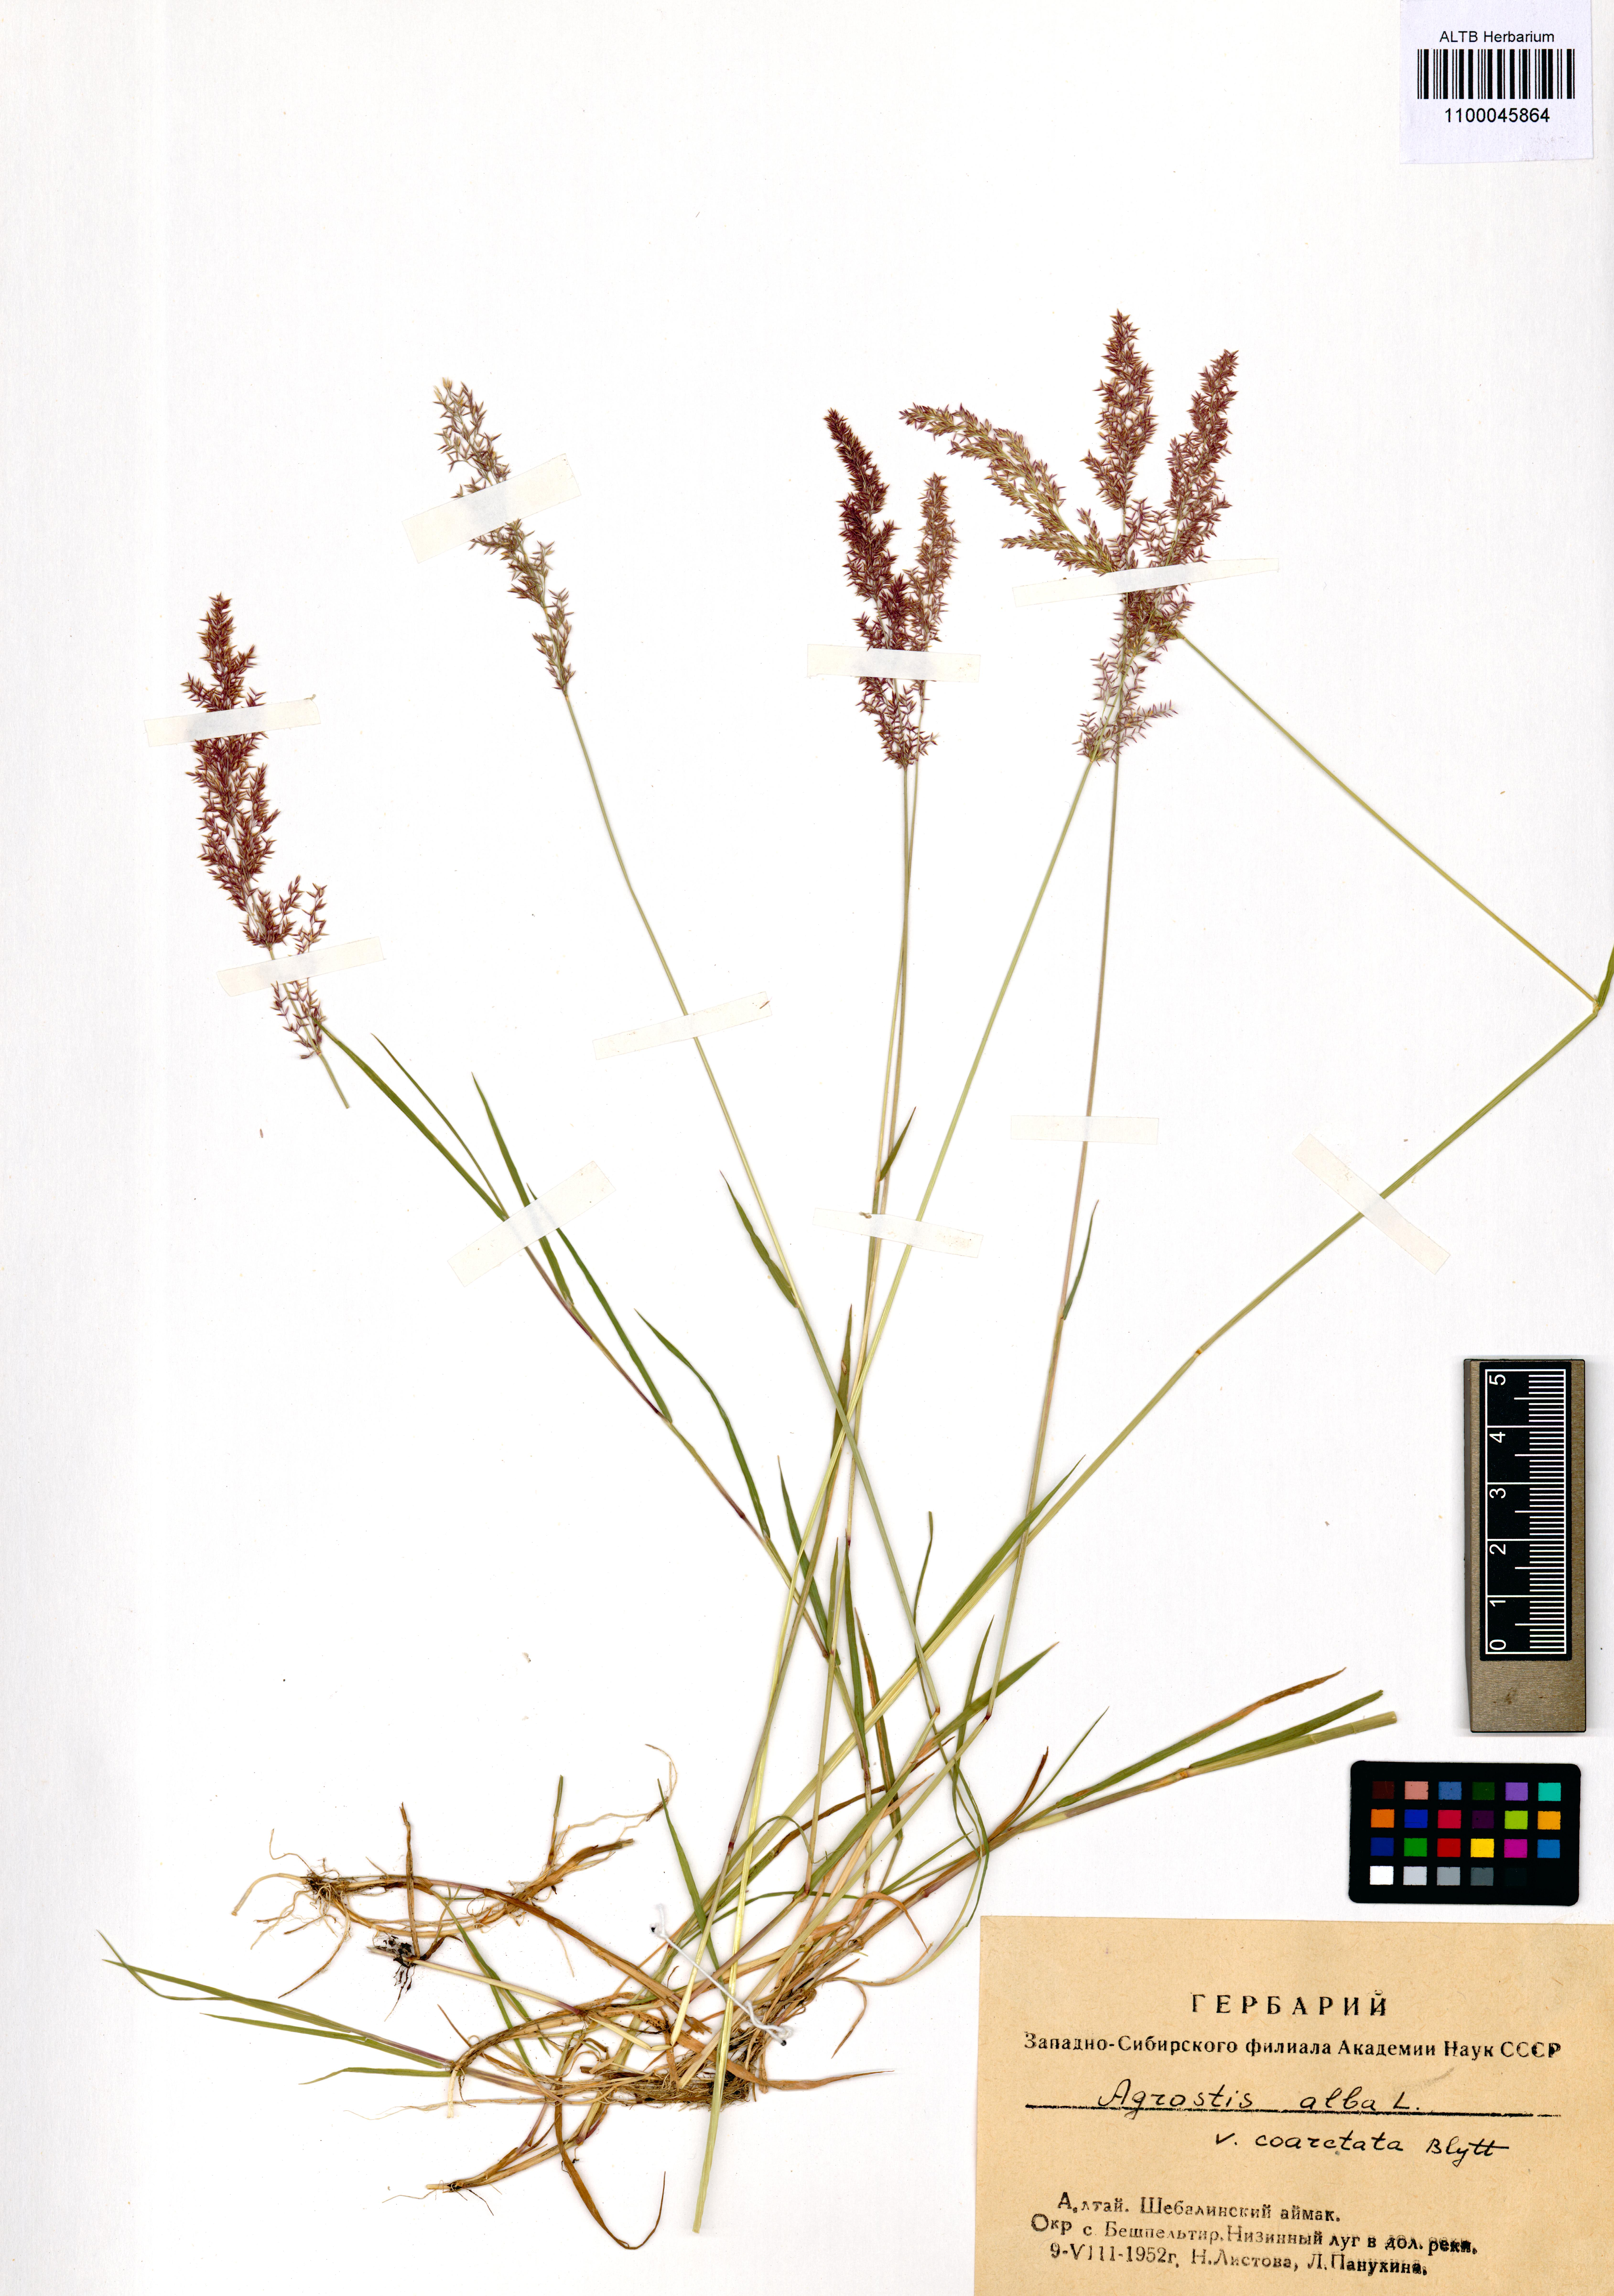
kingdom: Plantae
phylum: Tracheophyta
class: Liliopsida
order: Poales
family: Poaceae
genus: Agrostis
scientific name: Agrostis gigantea
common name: Black bent
